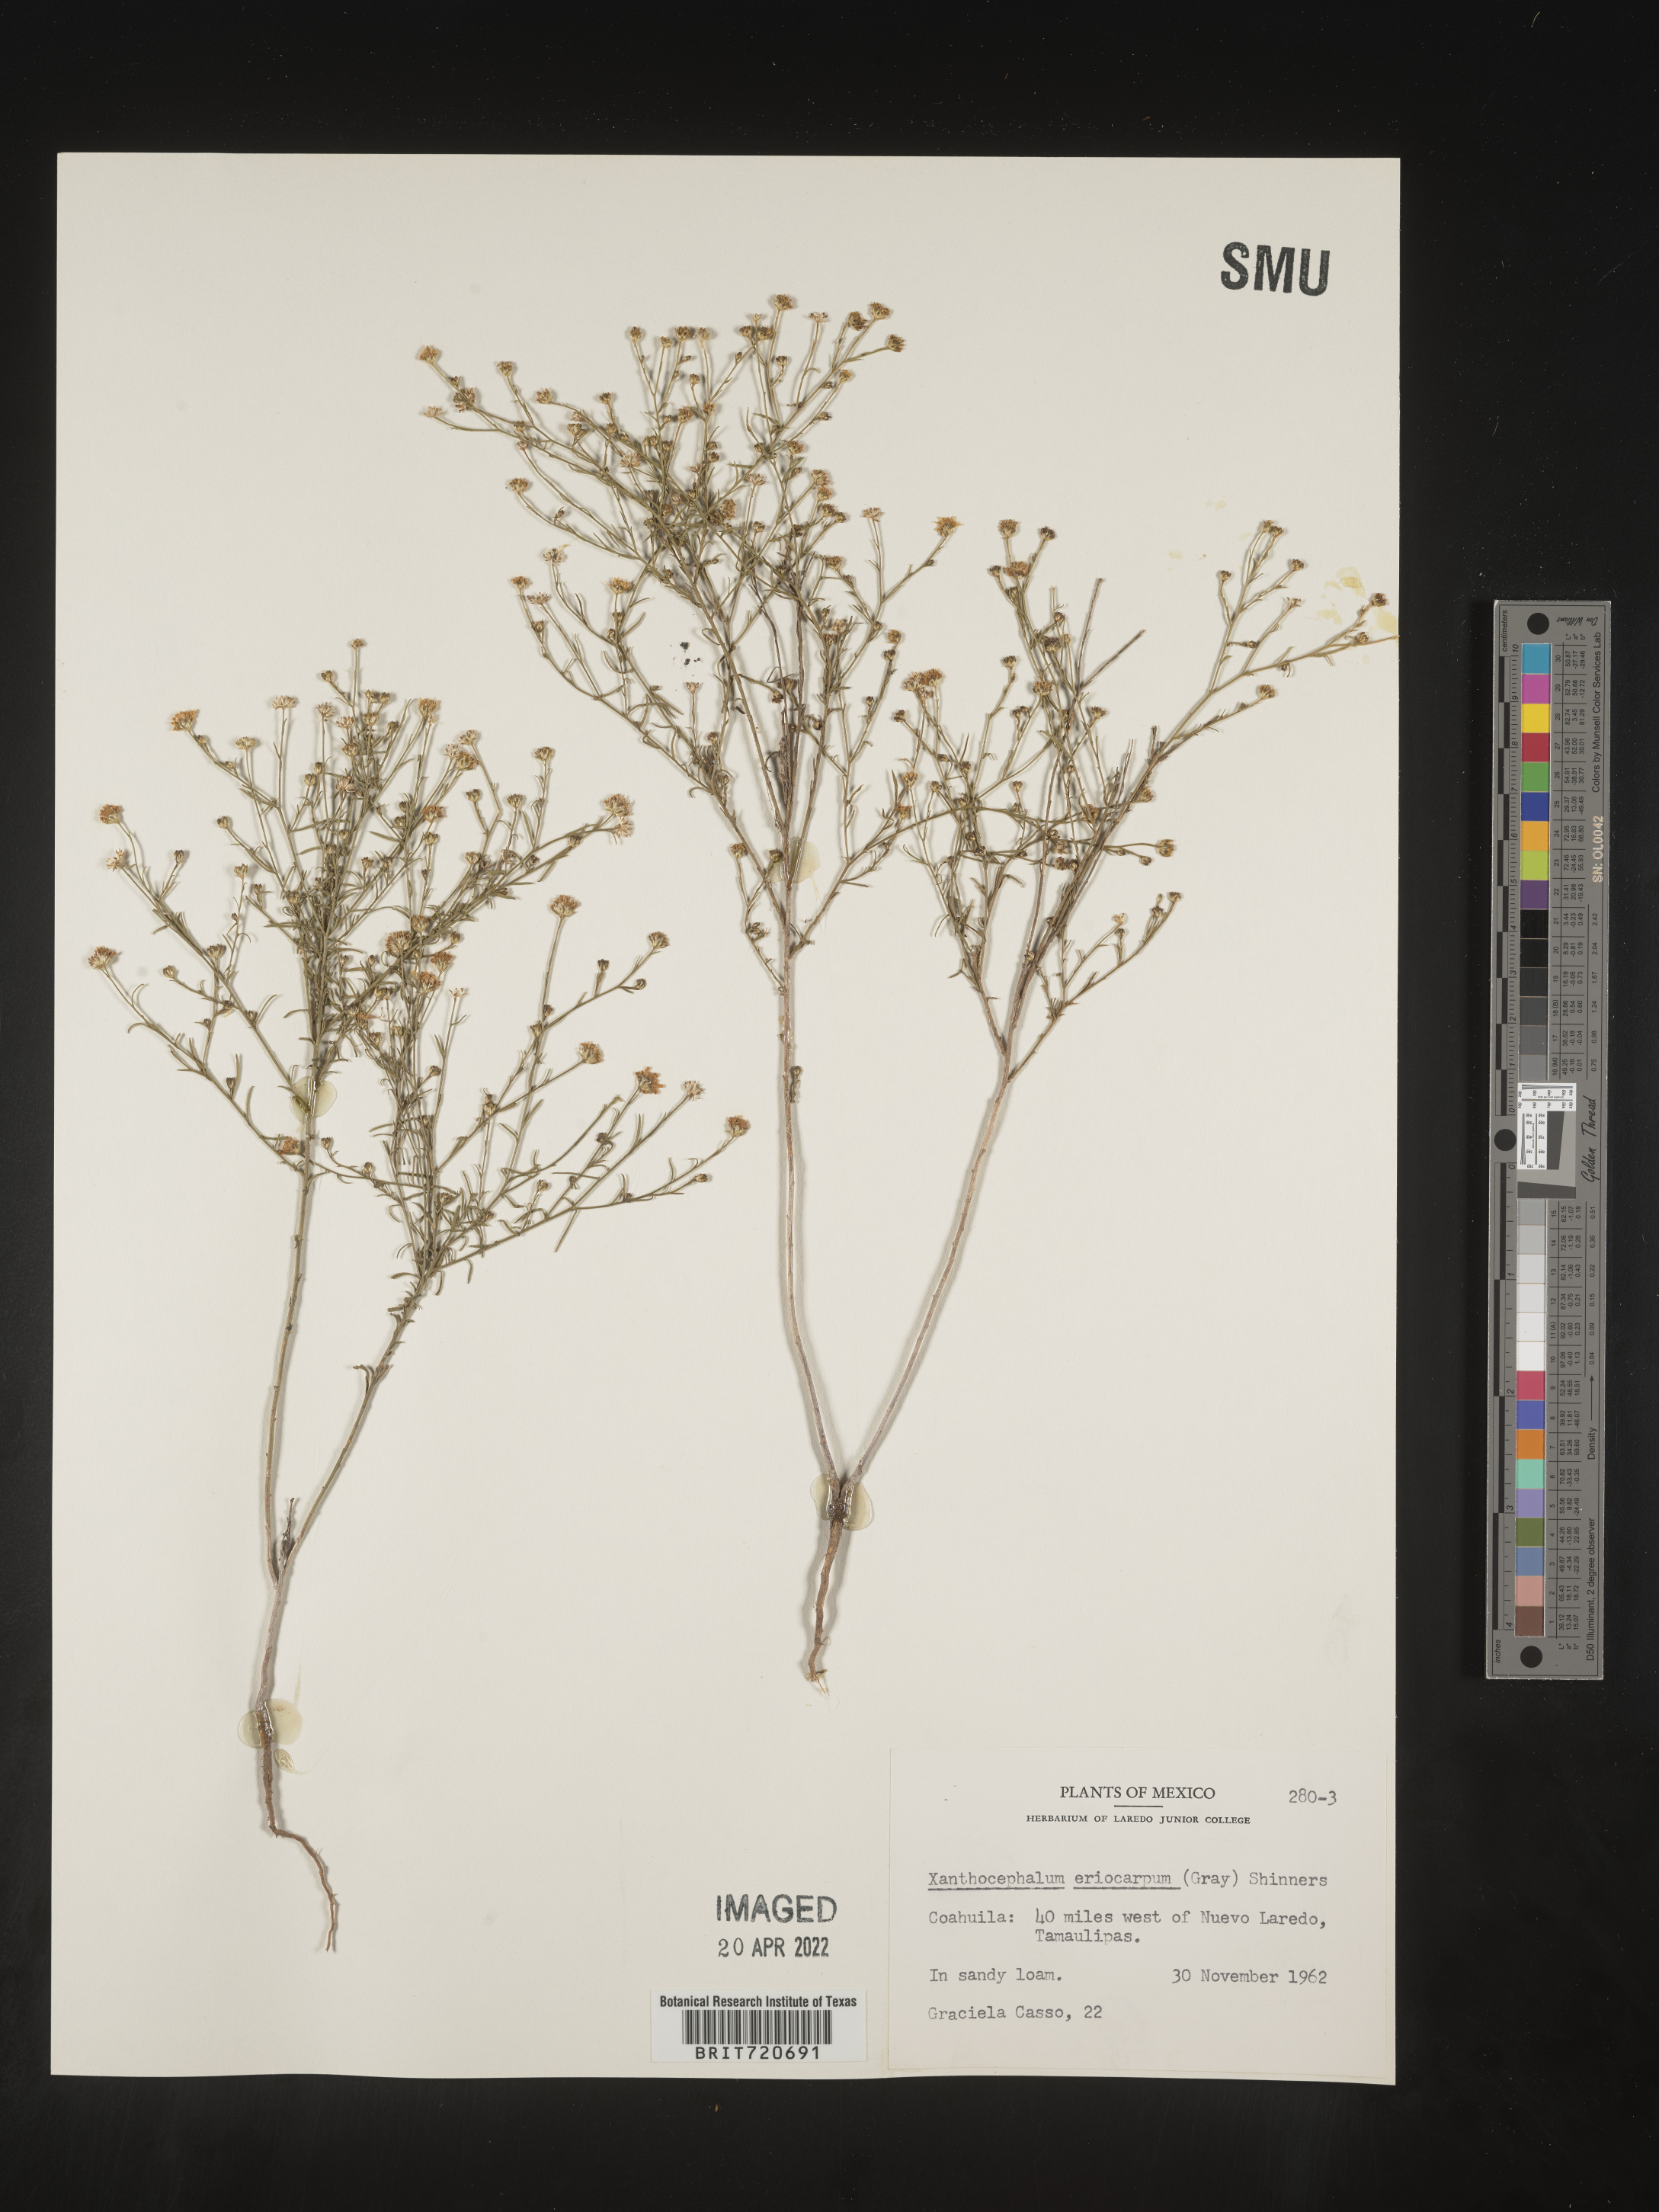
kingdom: Plantae
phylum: Tracheophyta
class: Magnoliopsida
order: Asterales
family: Asteraceae
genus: Gutierrezia
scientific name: Gutierrezia sphaerocephala
